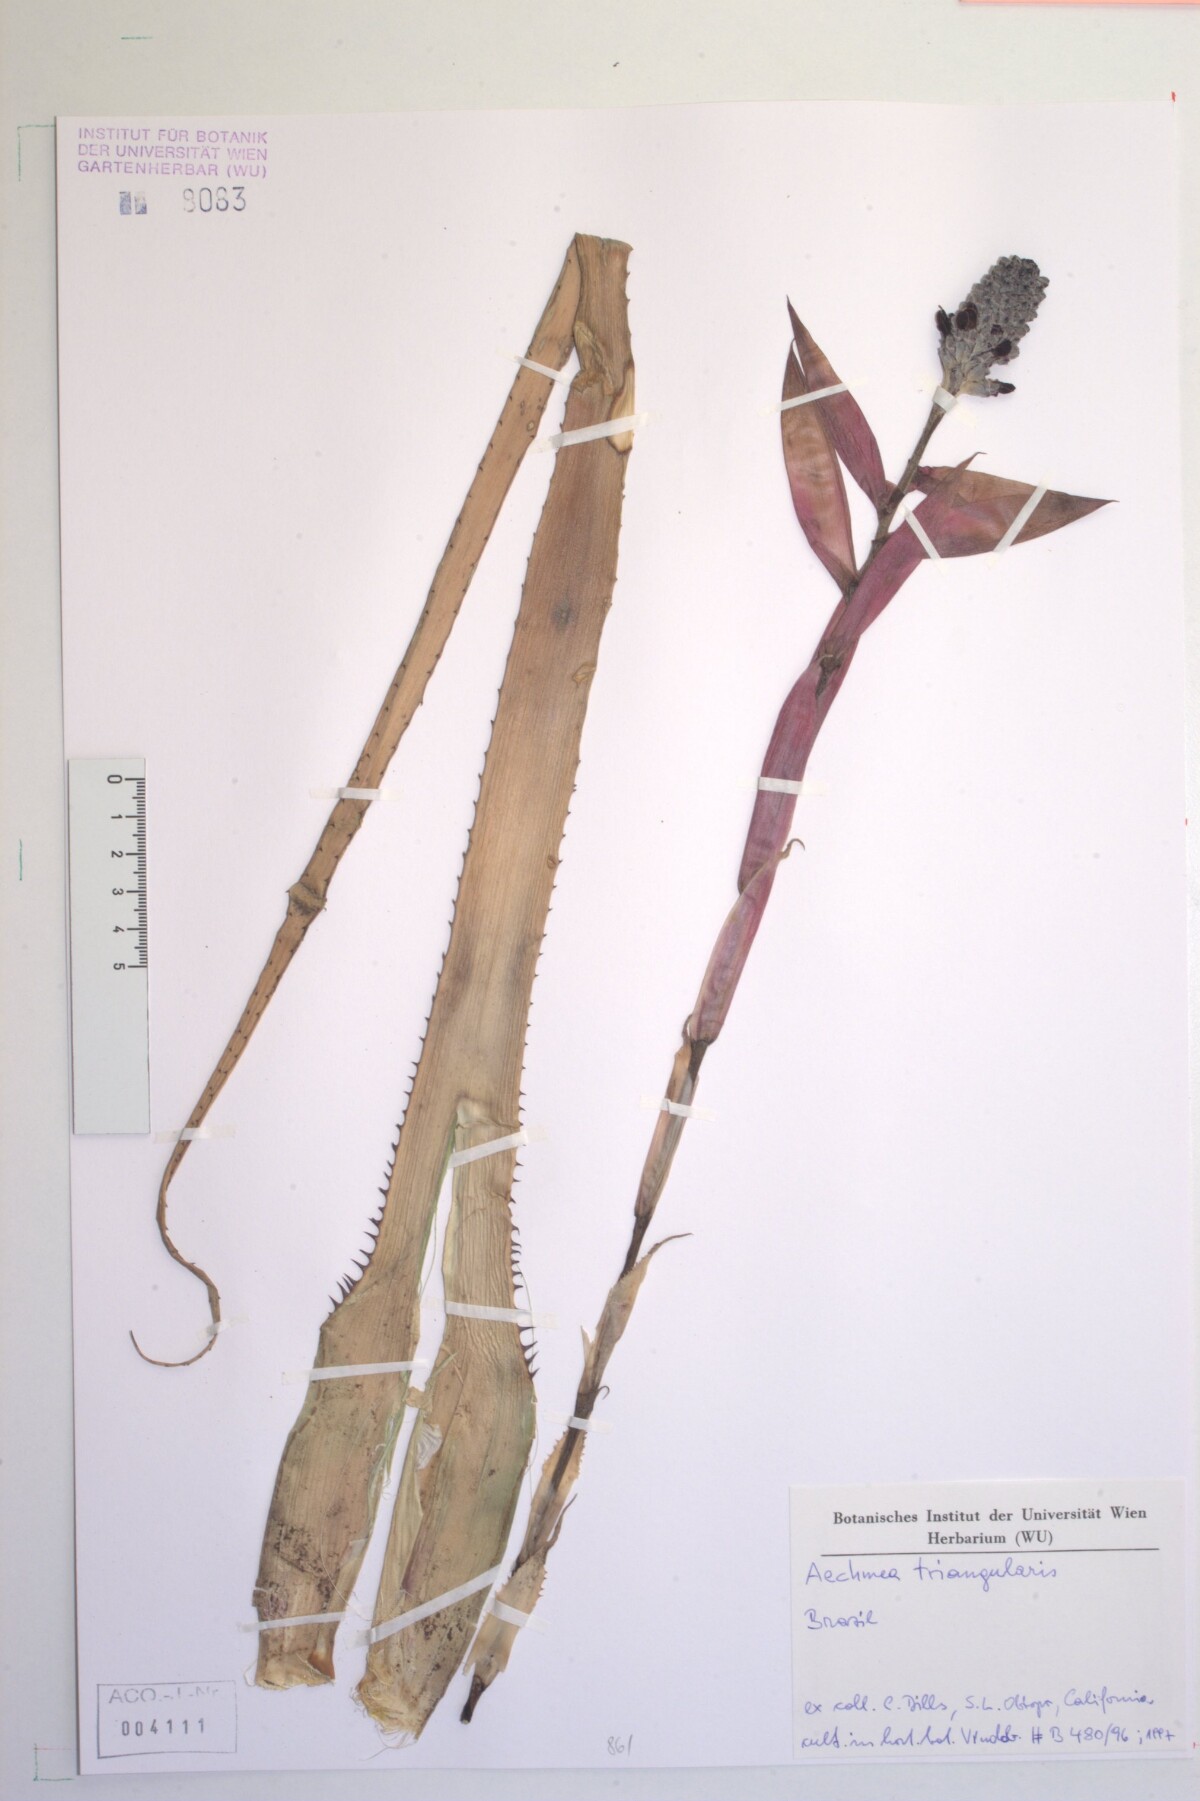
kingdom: Plantae
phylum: Tracheophyta
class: Liliopsida
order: Poales
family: Bromeliaceae
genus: Aechmea
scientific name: Aechmea triangularis
